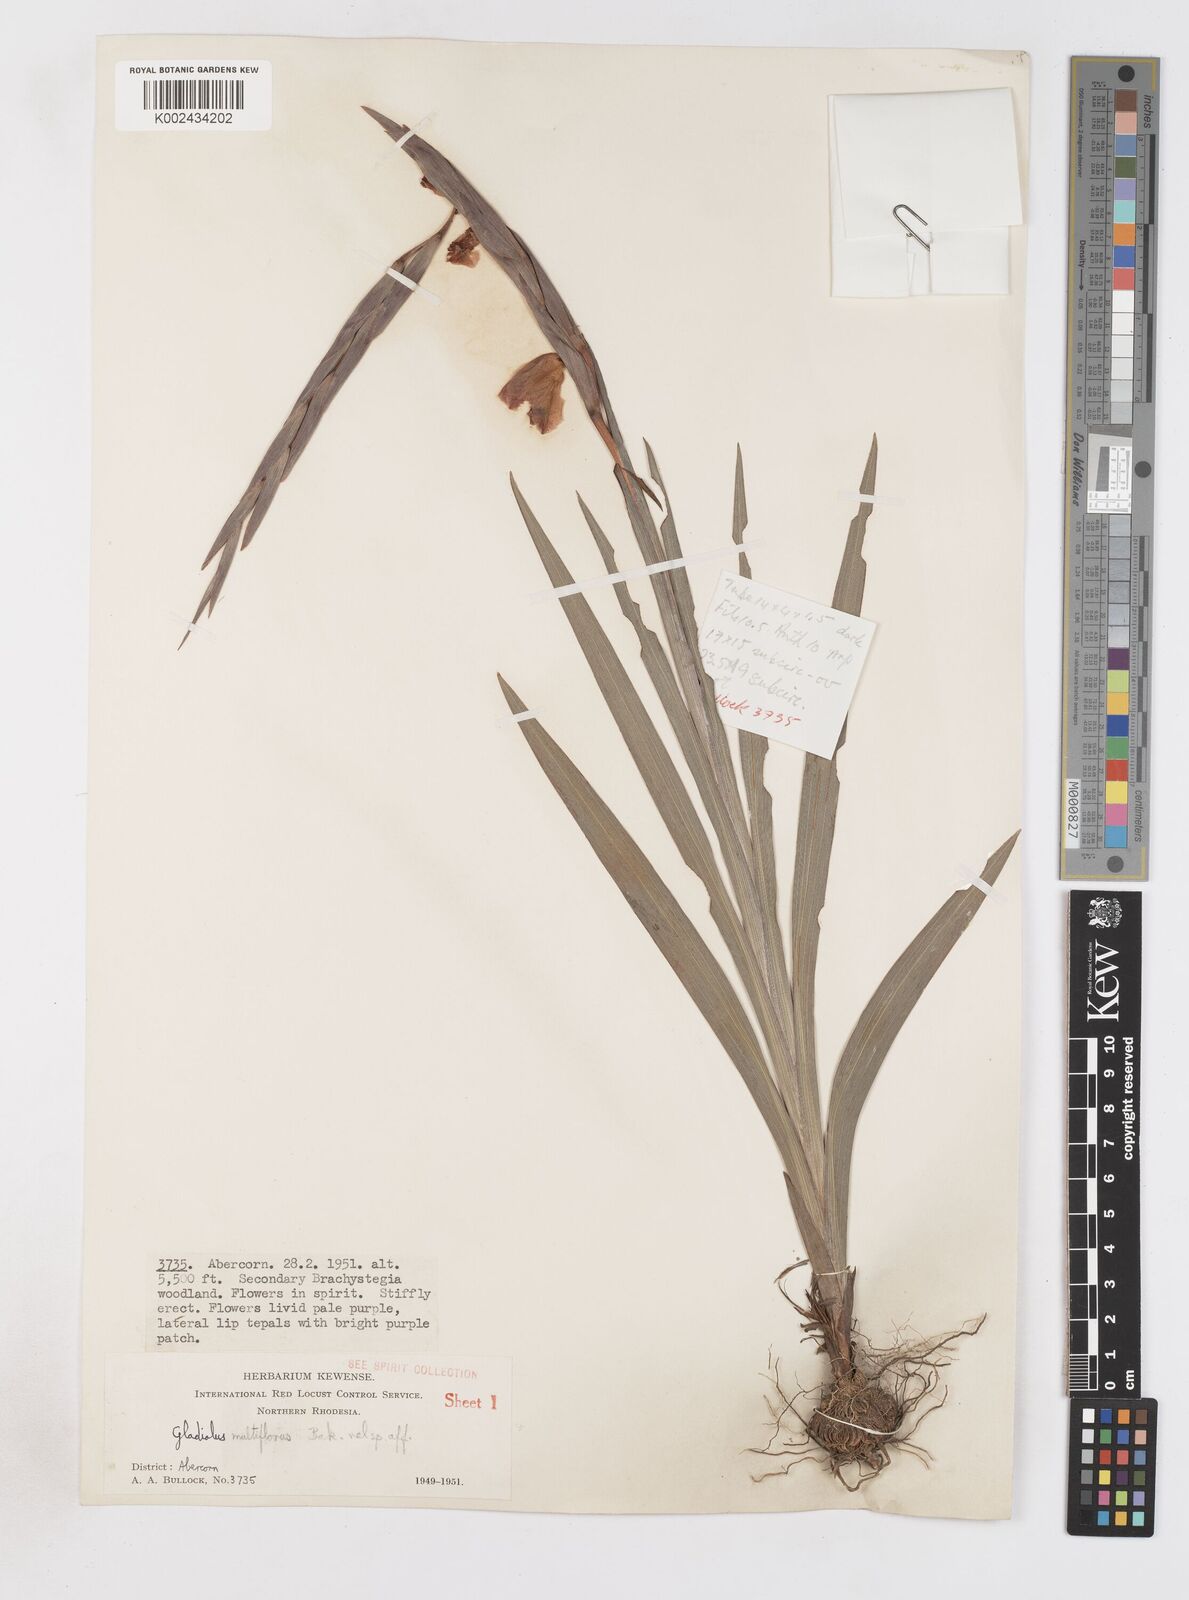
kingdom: Plantae
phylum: Tracheophyta
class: Liliopsida
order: Asparagales
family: Iridaceae
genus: Gladiolus
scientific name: Gladiolus gregarius
